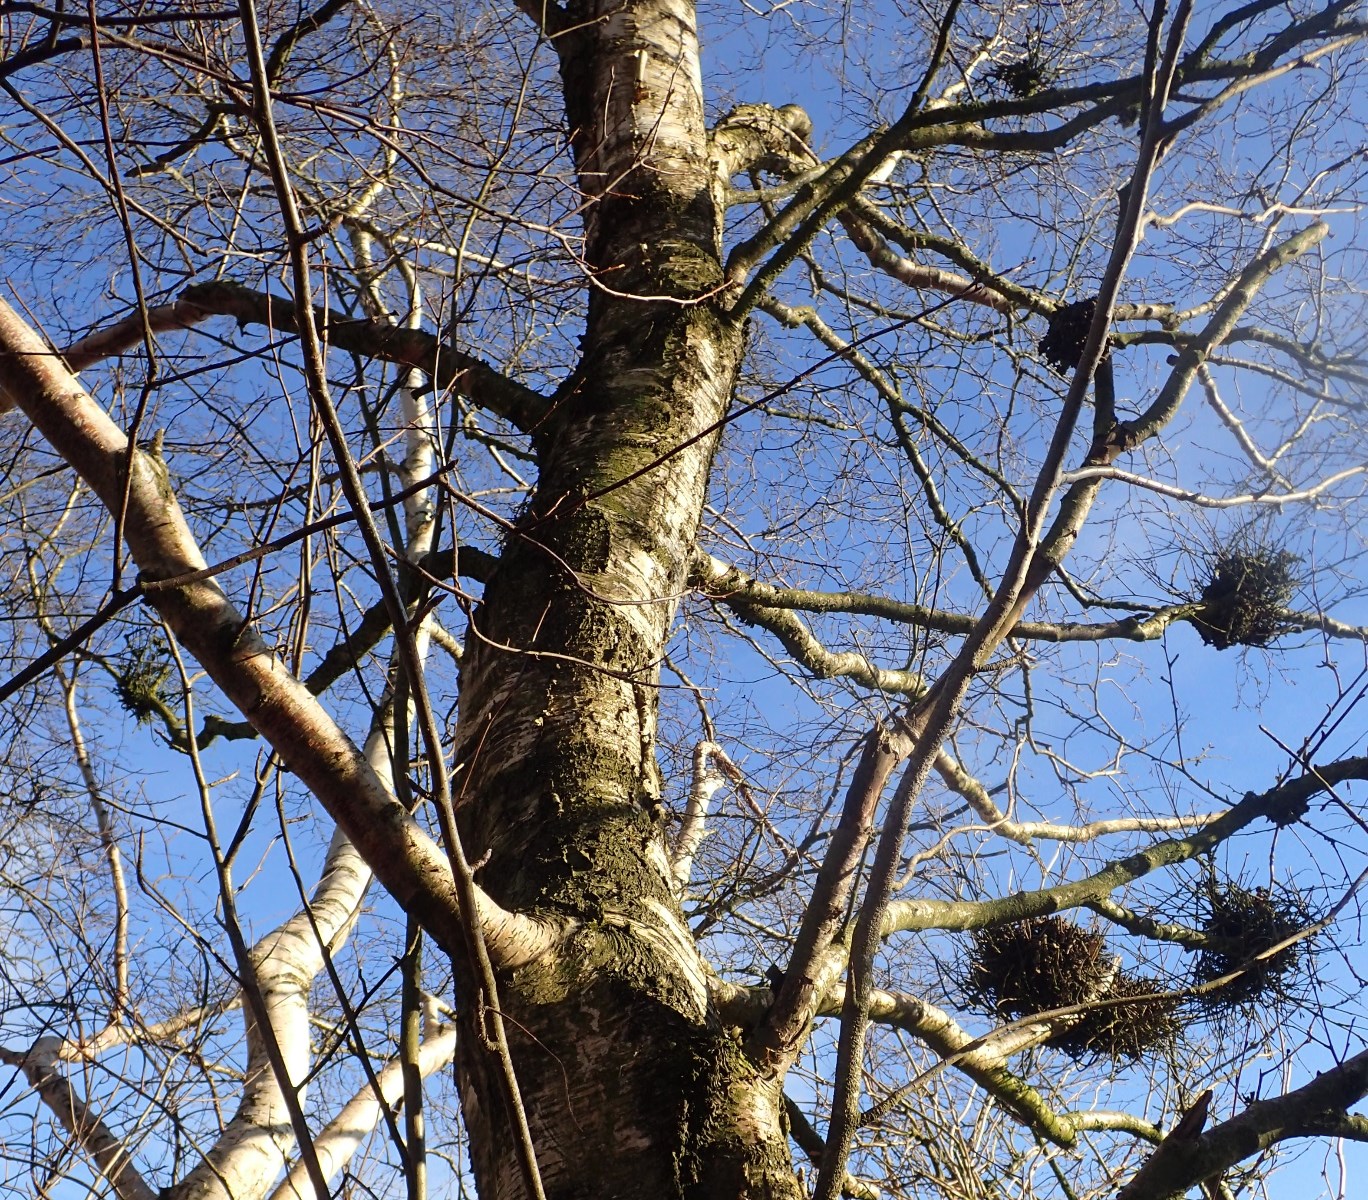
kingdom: Fungi
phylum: Ascomycota
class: Taphrinomycetes
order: Taphrinales
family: Taphrinaceae
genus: Taphrina
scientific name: Taphrina betulina
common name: hekse-sækdug
